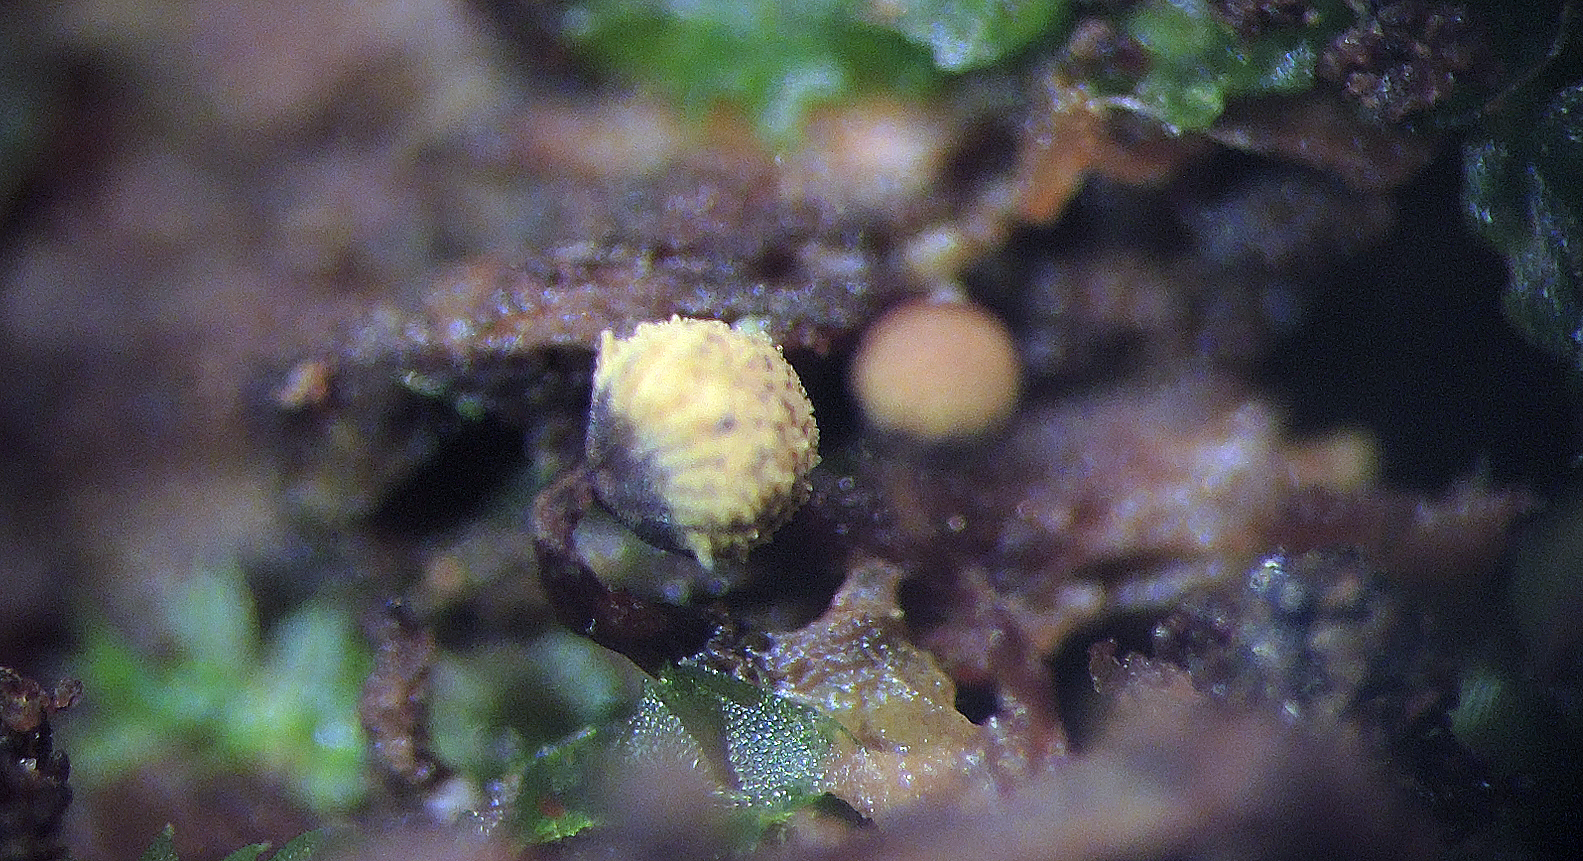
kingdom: Protozoa
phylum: Mycetozoa
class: Myxomycetes
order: Cribrariales
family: Cribrariaceae
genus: Cribraria
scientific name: Cribraria aurantiaca
